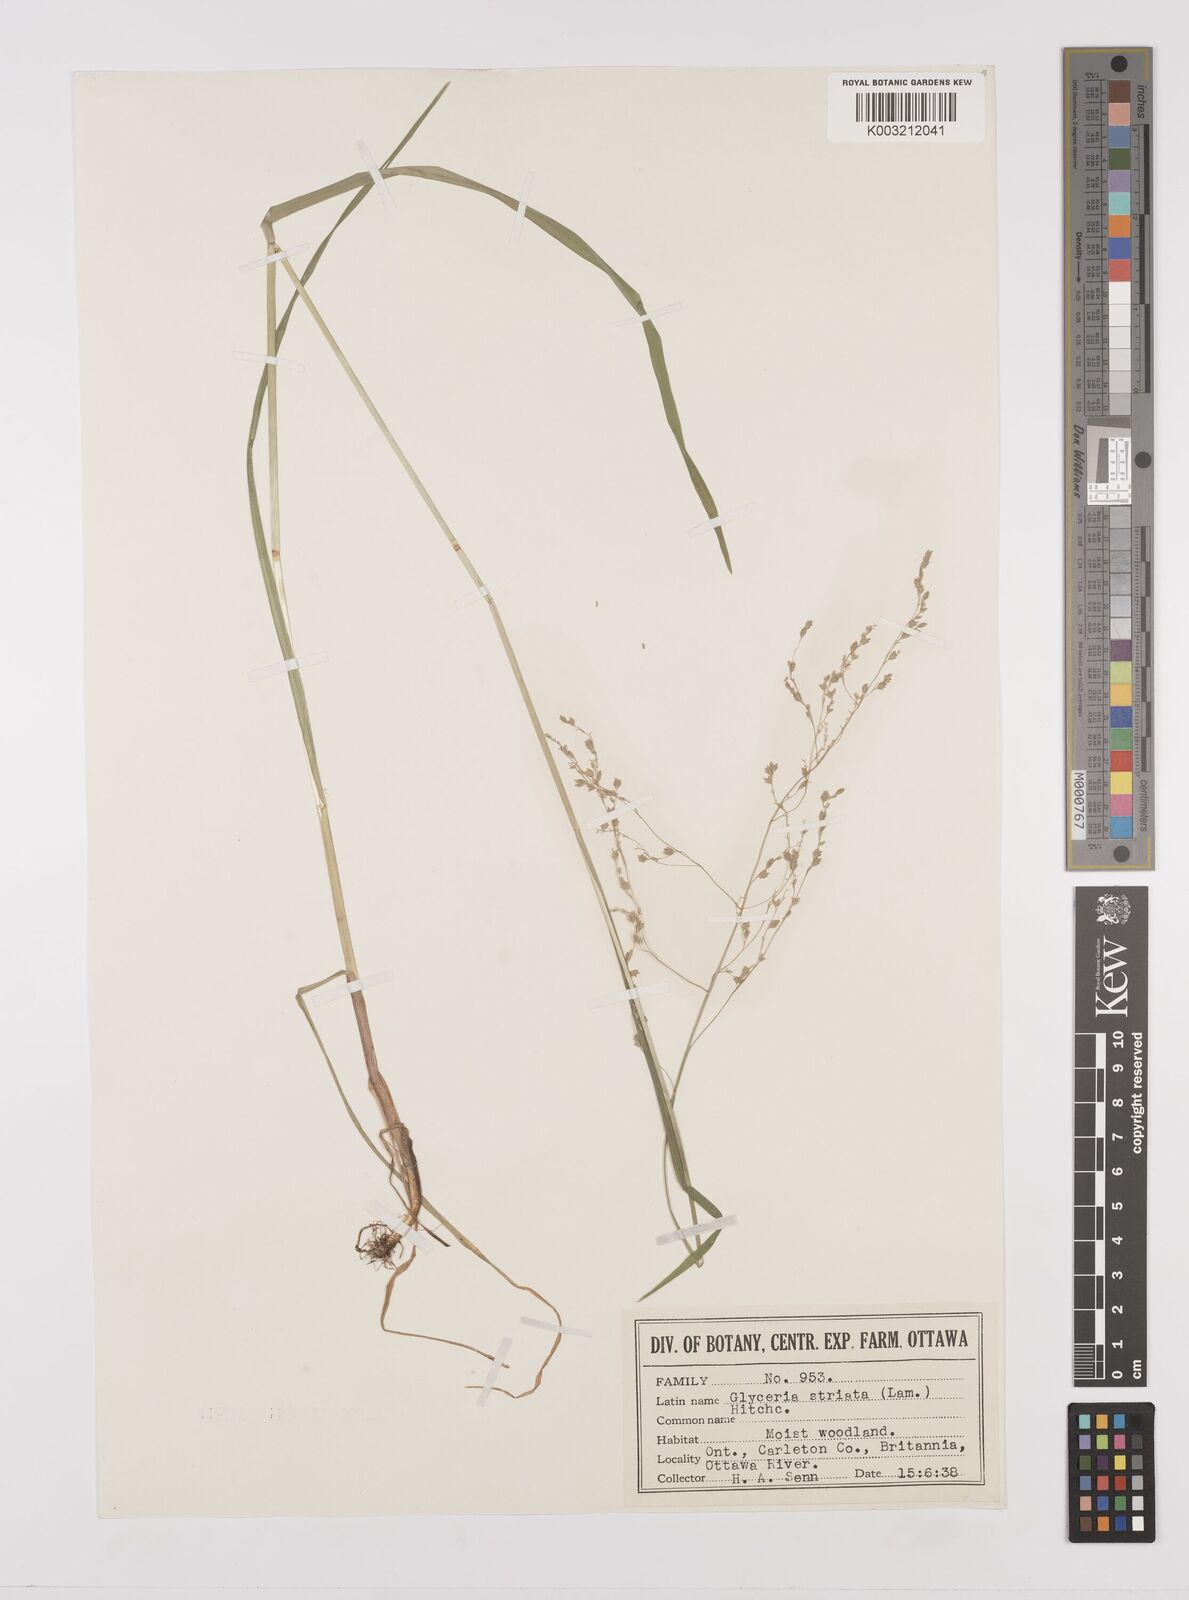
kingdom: Plantae
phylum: Tracheophyta
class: Liliopsida
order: Poales
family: Poaceae
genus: Glyceria
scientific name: Glyceria striata
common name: Fowl manna grass
